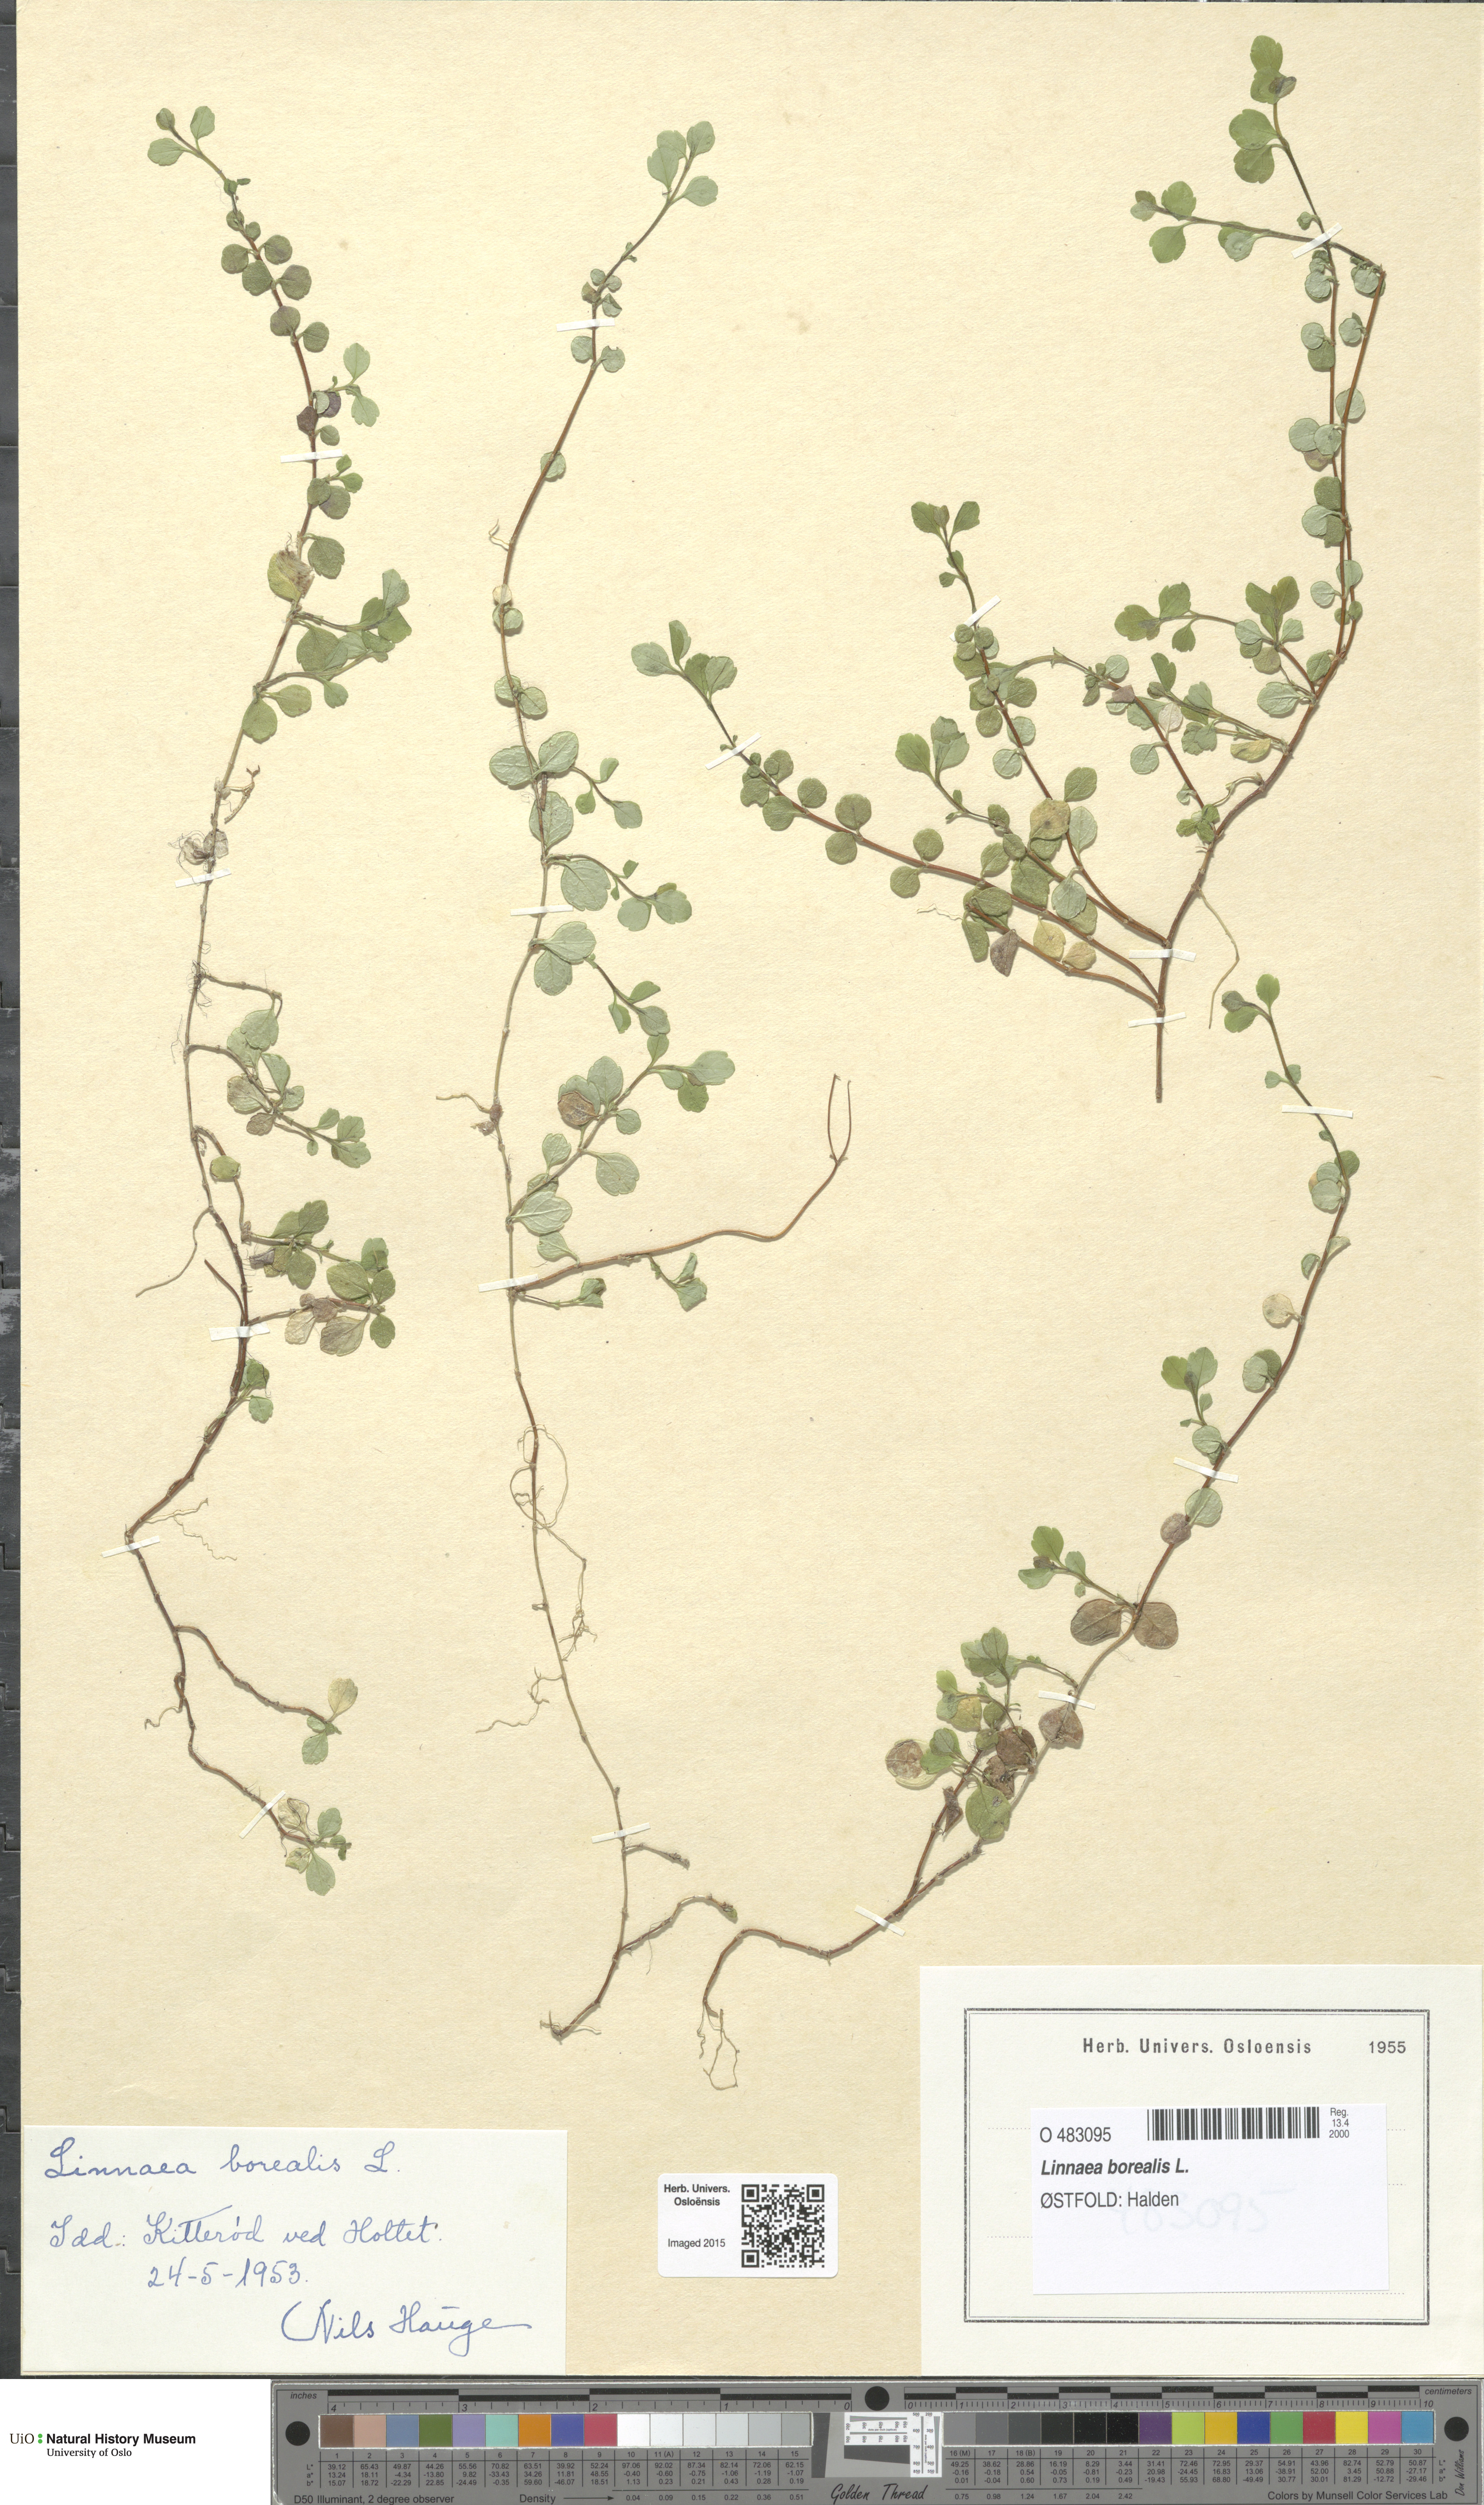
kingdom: Plantae
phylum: Tracheophyta
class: Magnoliopsida
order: Dipsacales
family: Caprifoliaceae
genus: Linnaea
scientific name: Linnaea borealis
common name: Twinflower
